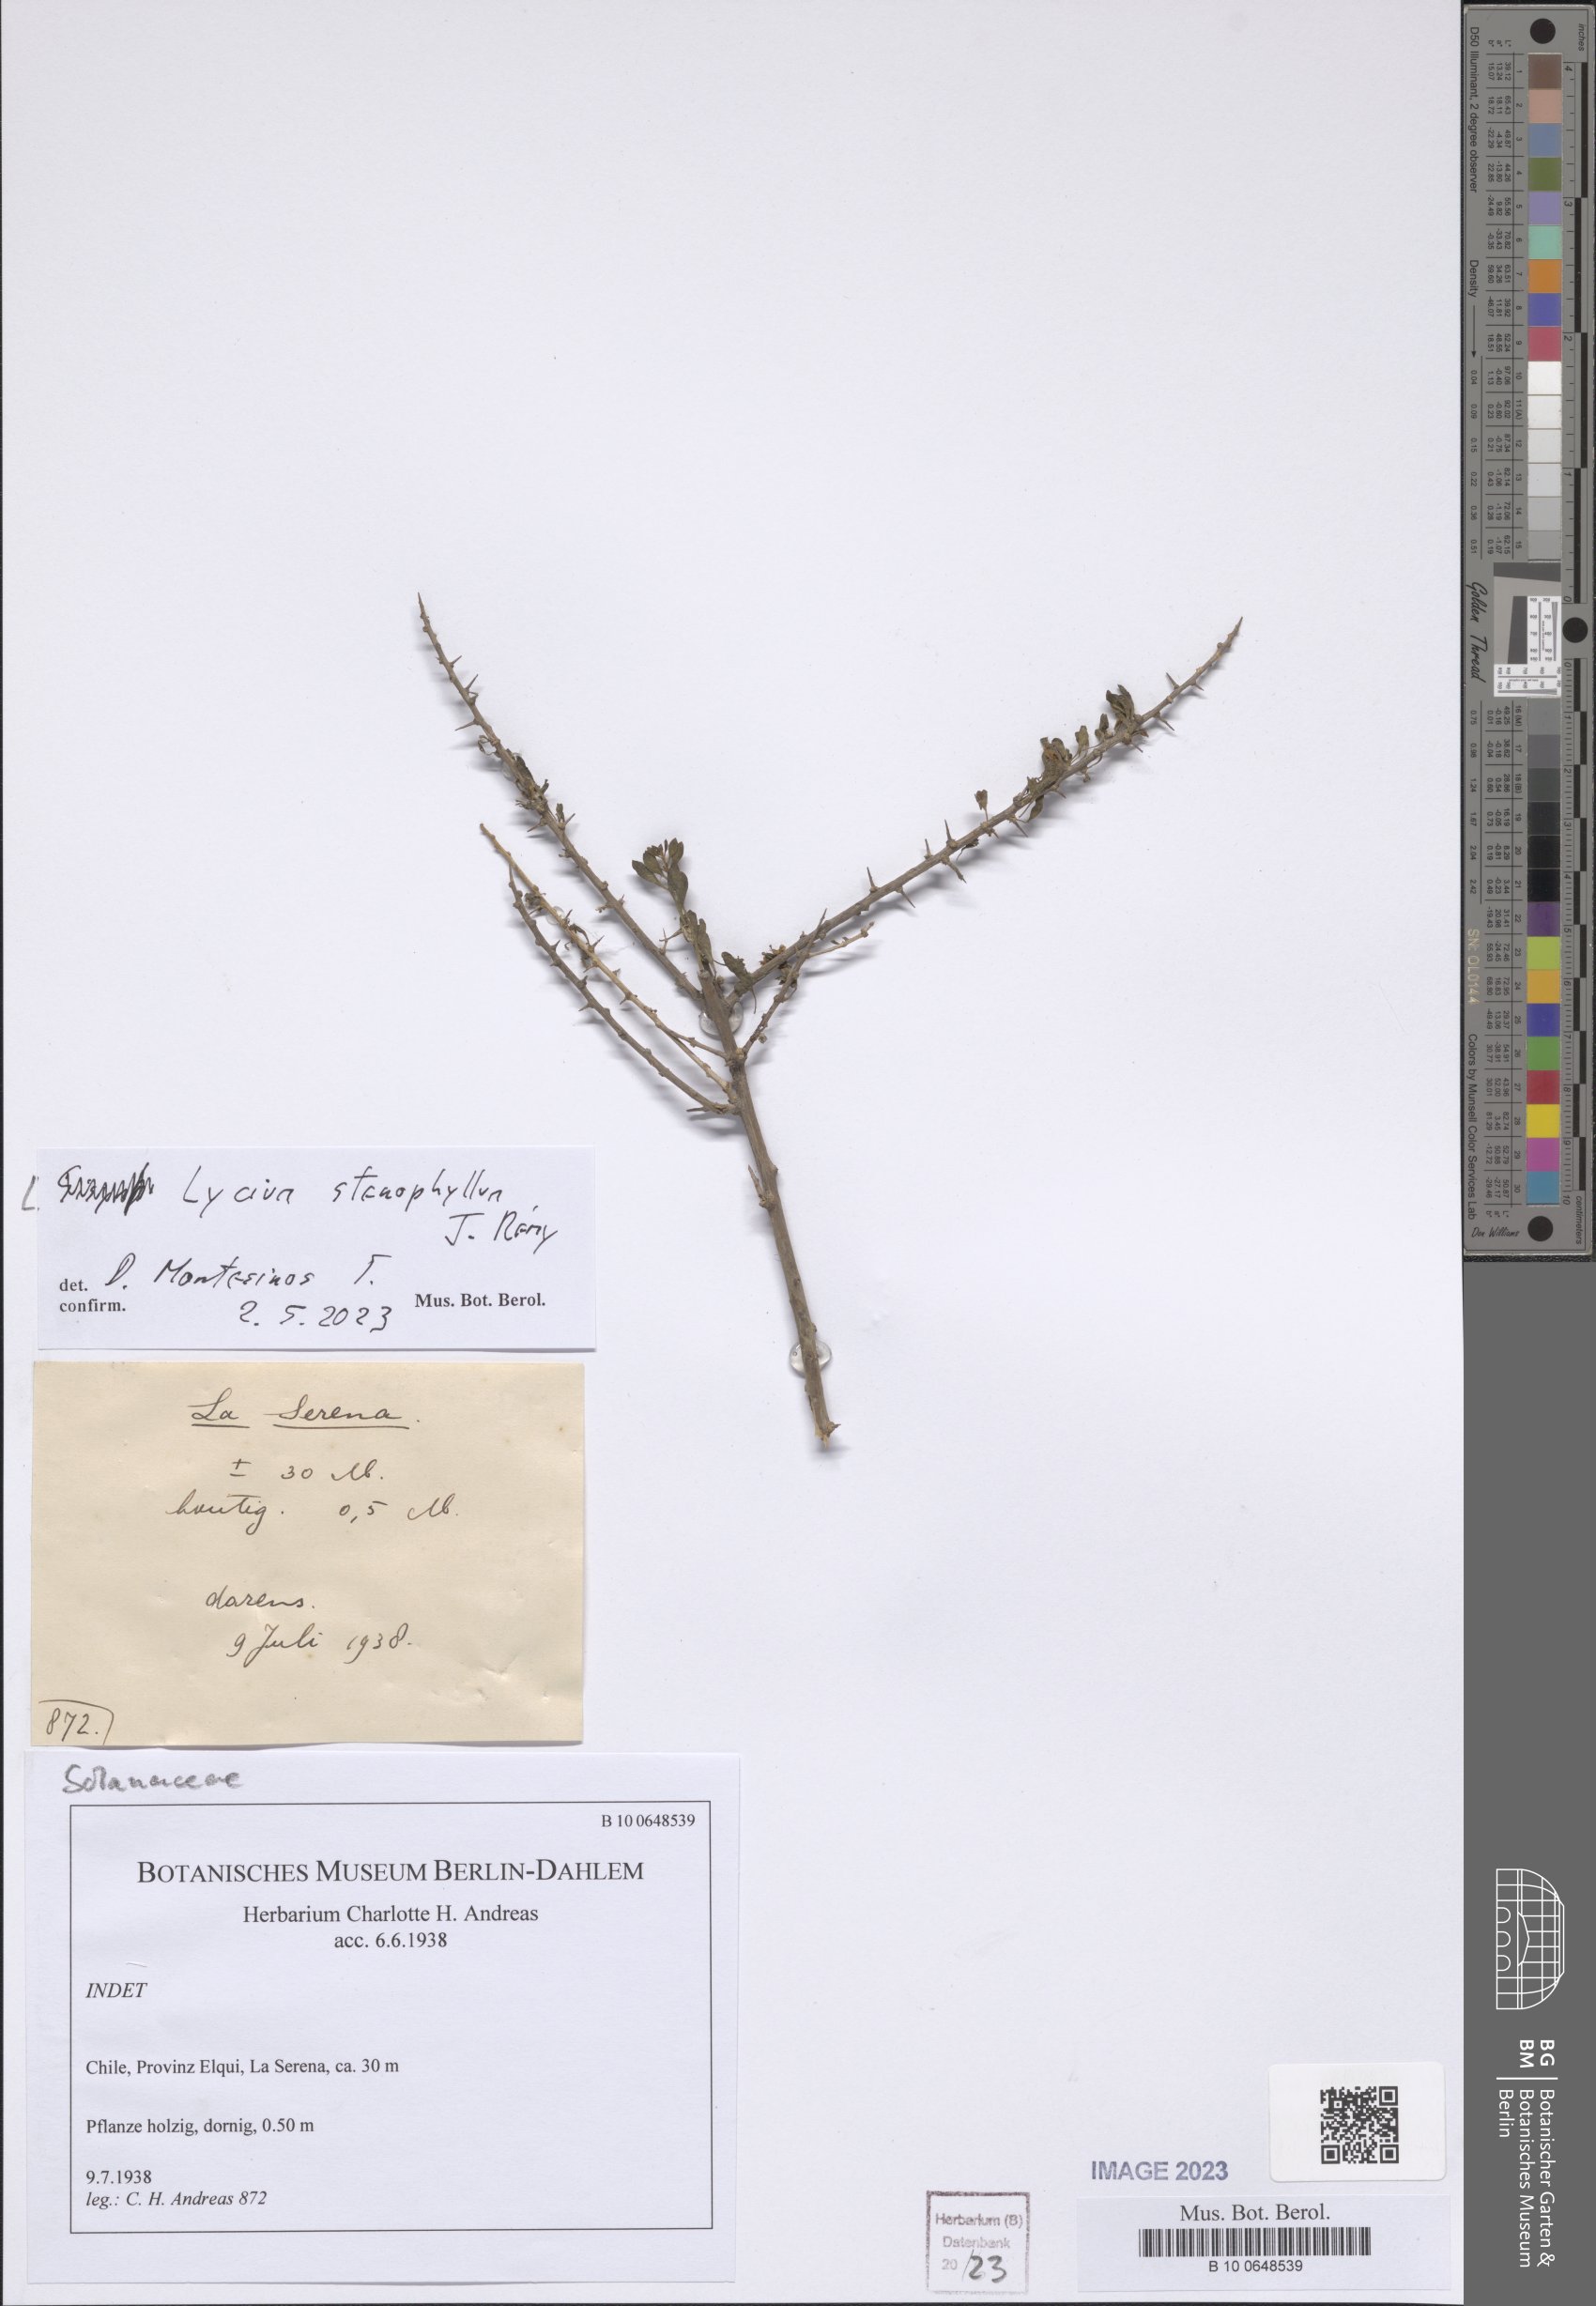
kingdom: Plantae
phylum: Tracheophyta
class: Magnoliopsida
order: Solanales
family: Solanaceae
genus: Lycium
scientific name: Lycium stenophyllum
